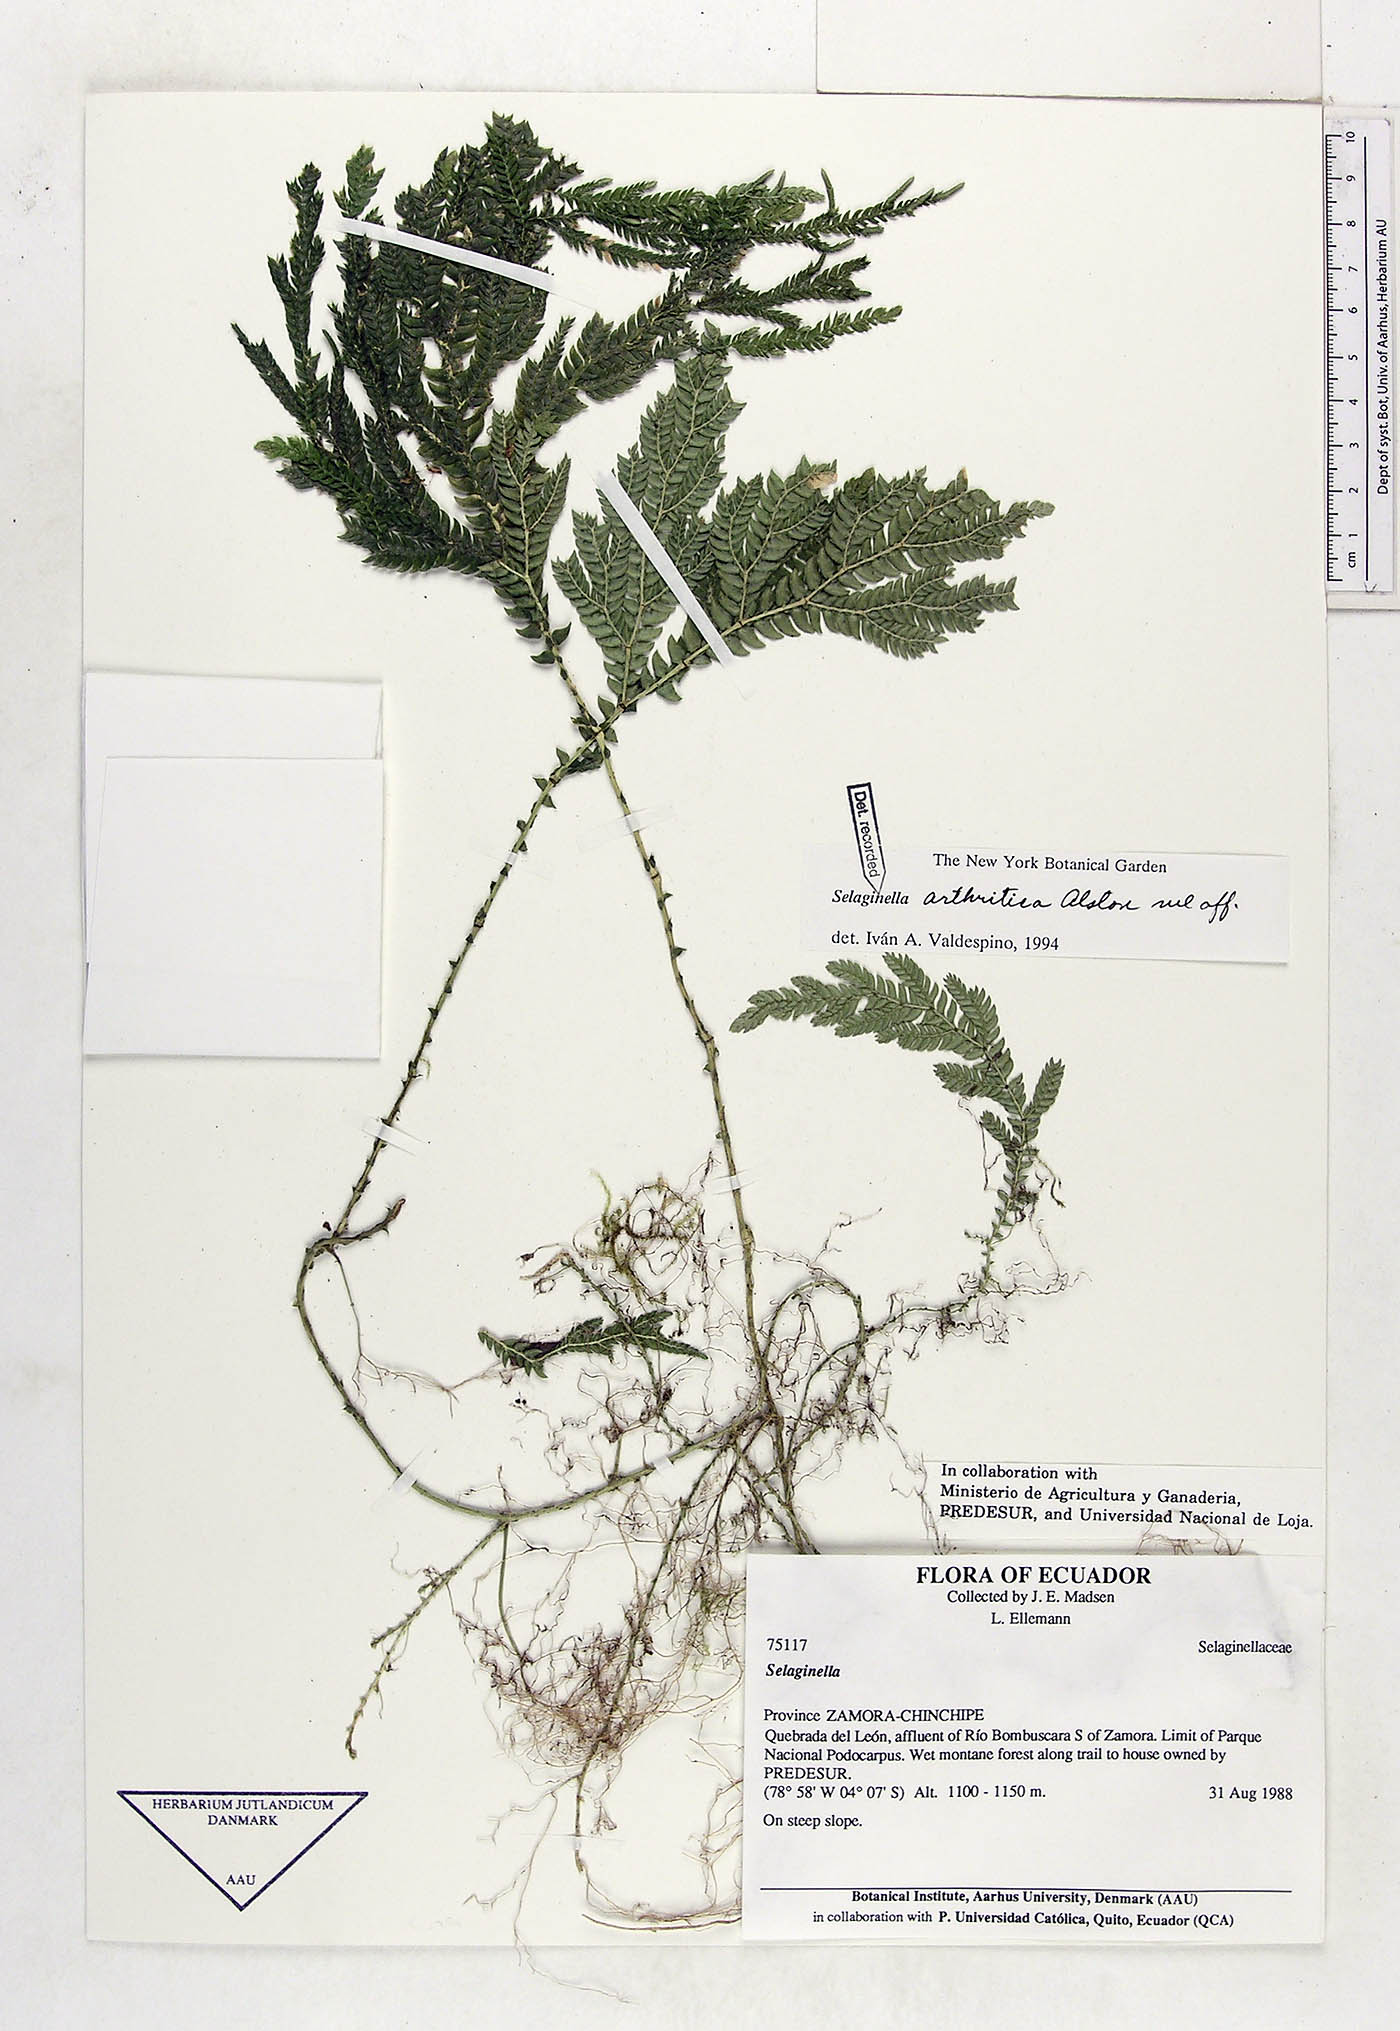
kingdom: Plantae
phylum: Tracheophyta
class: Lycopodiopsida
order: Selaginellales
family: Selaginellaceae
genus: Selaginella
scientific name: Selaginella arthritica
